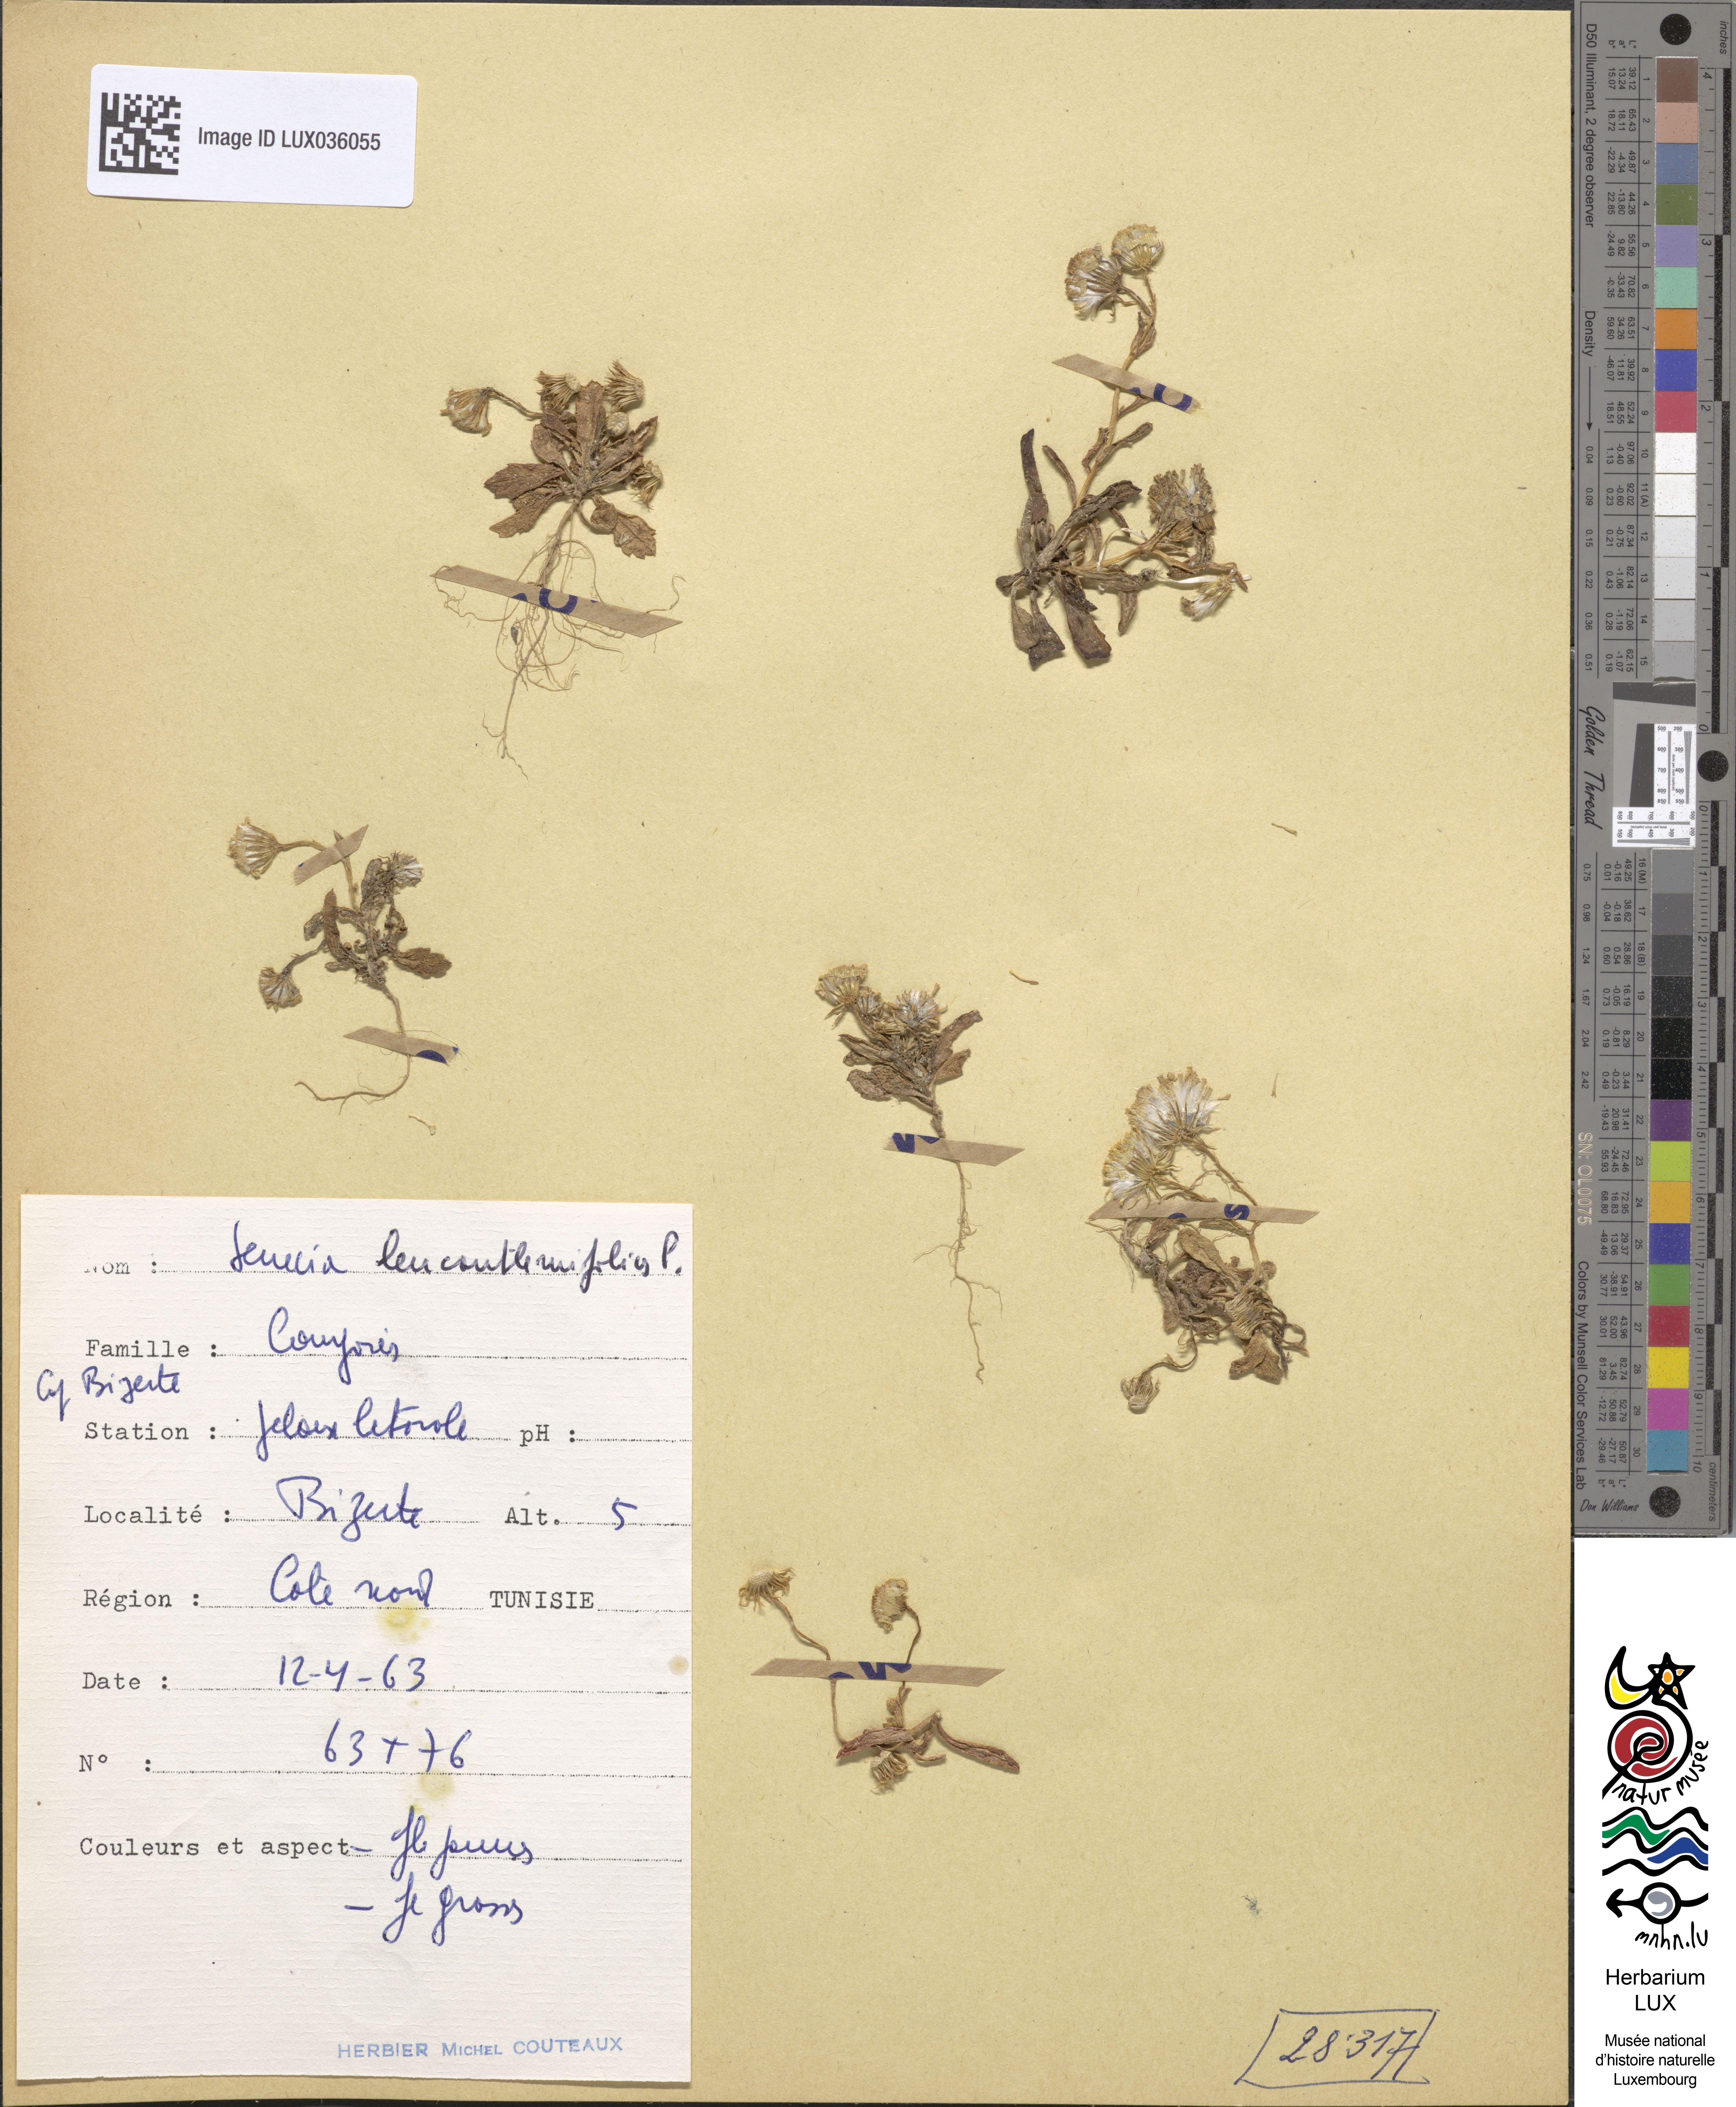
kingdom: Plantae
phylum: Tracheophyta
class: Magnoliopsida
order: Asterales
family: Asteraceae
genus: Senecio
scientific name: Senecio leucanthemifolius
